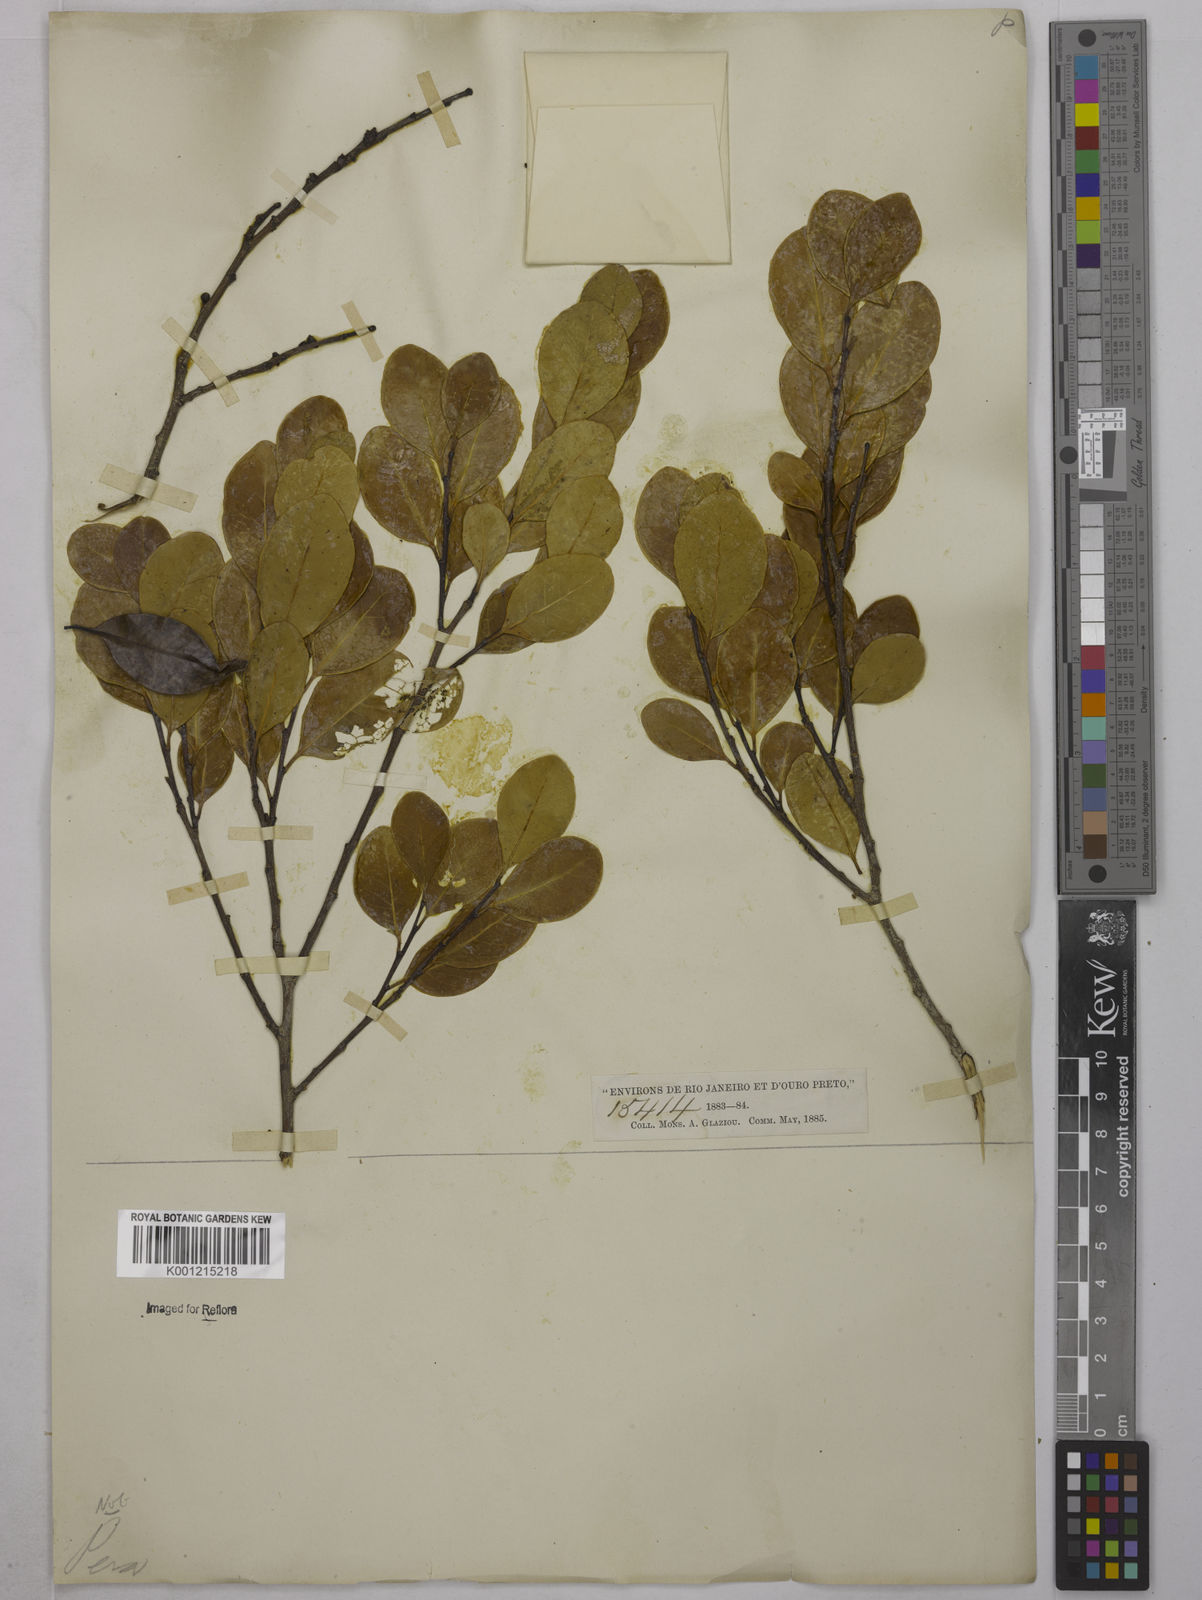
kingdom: Plantae
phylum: Tracheophyta
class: Magnoliopsida
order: Malpighiales
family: Euphorbiaceae
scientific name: Euphorbiaceae
